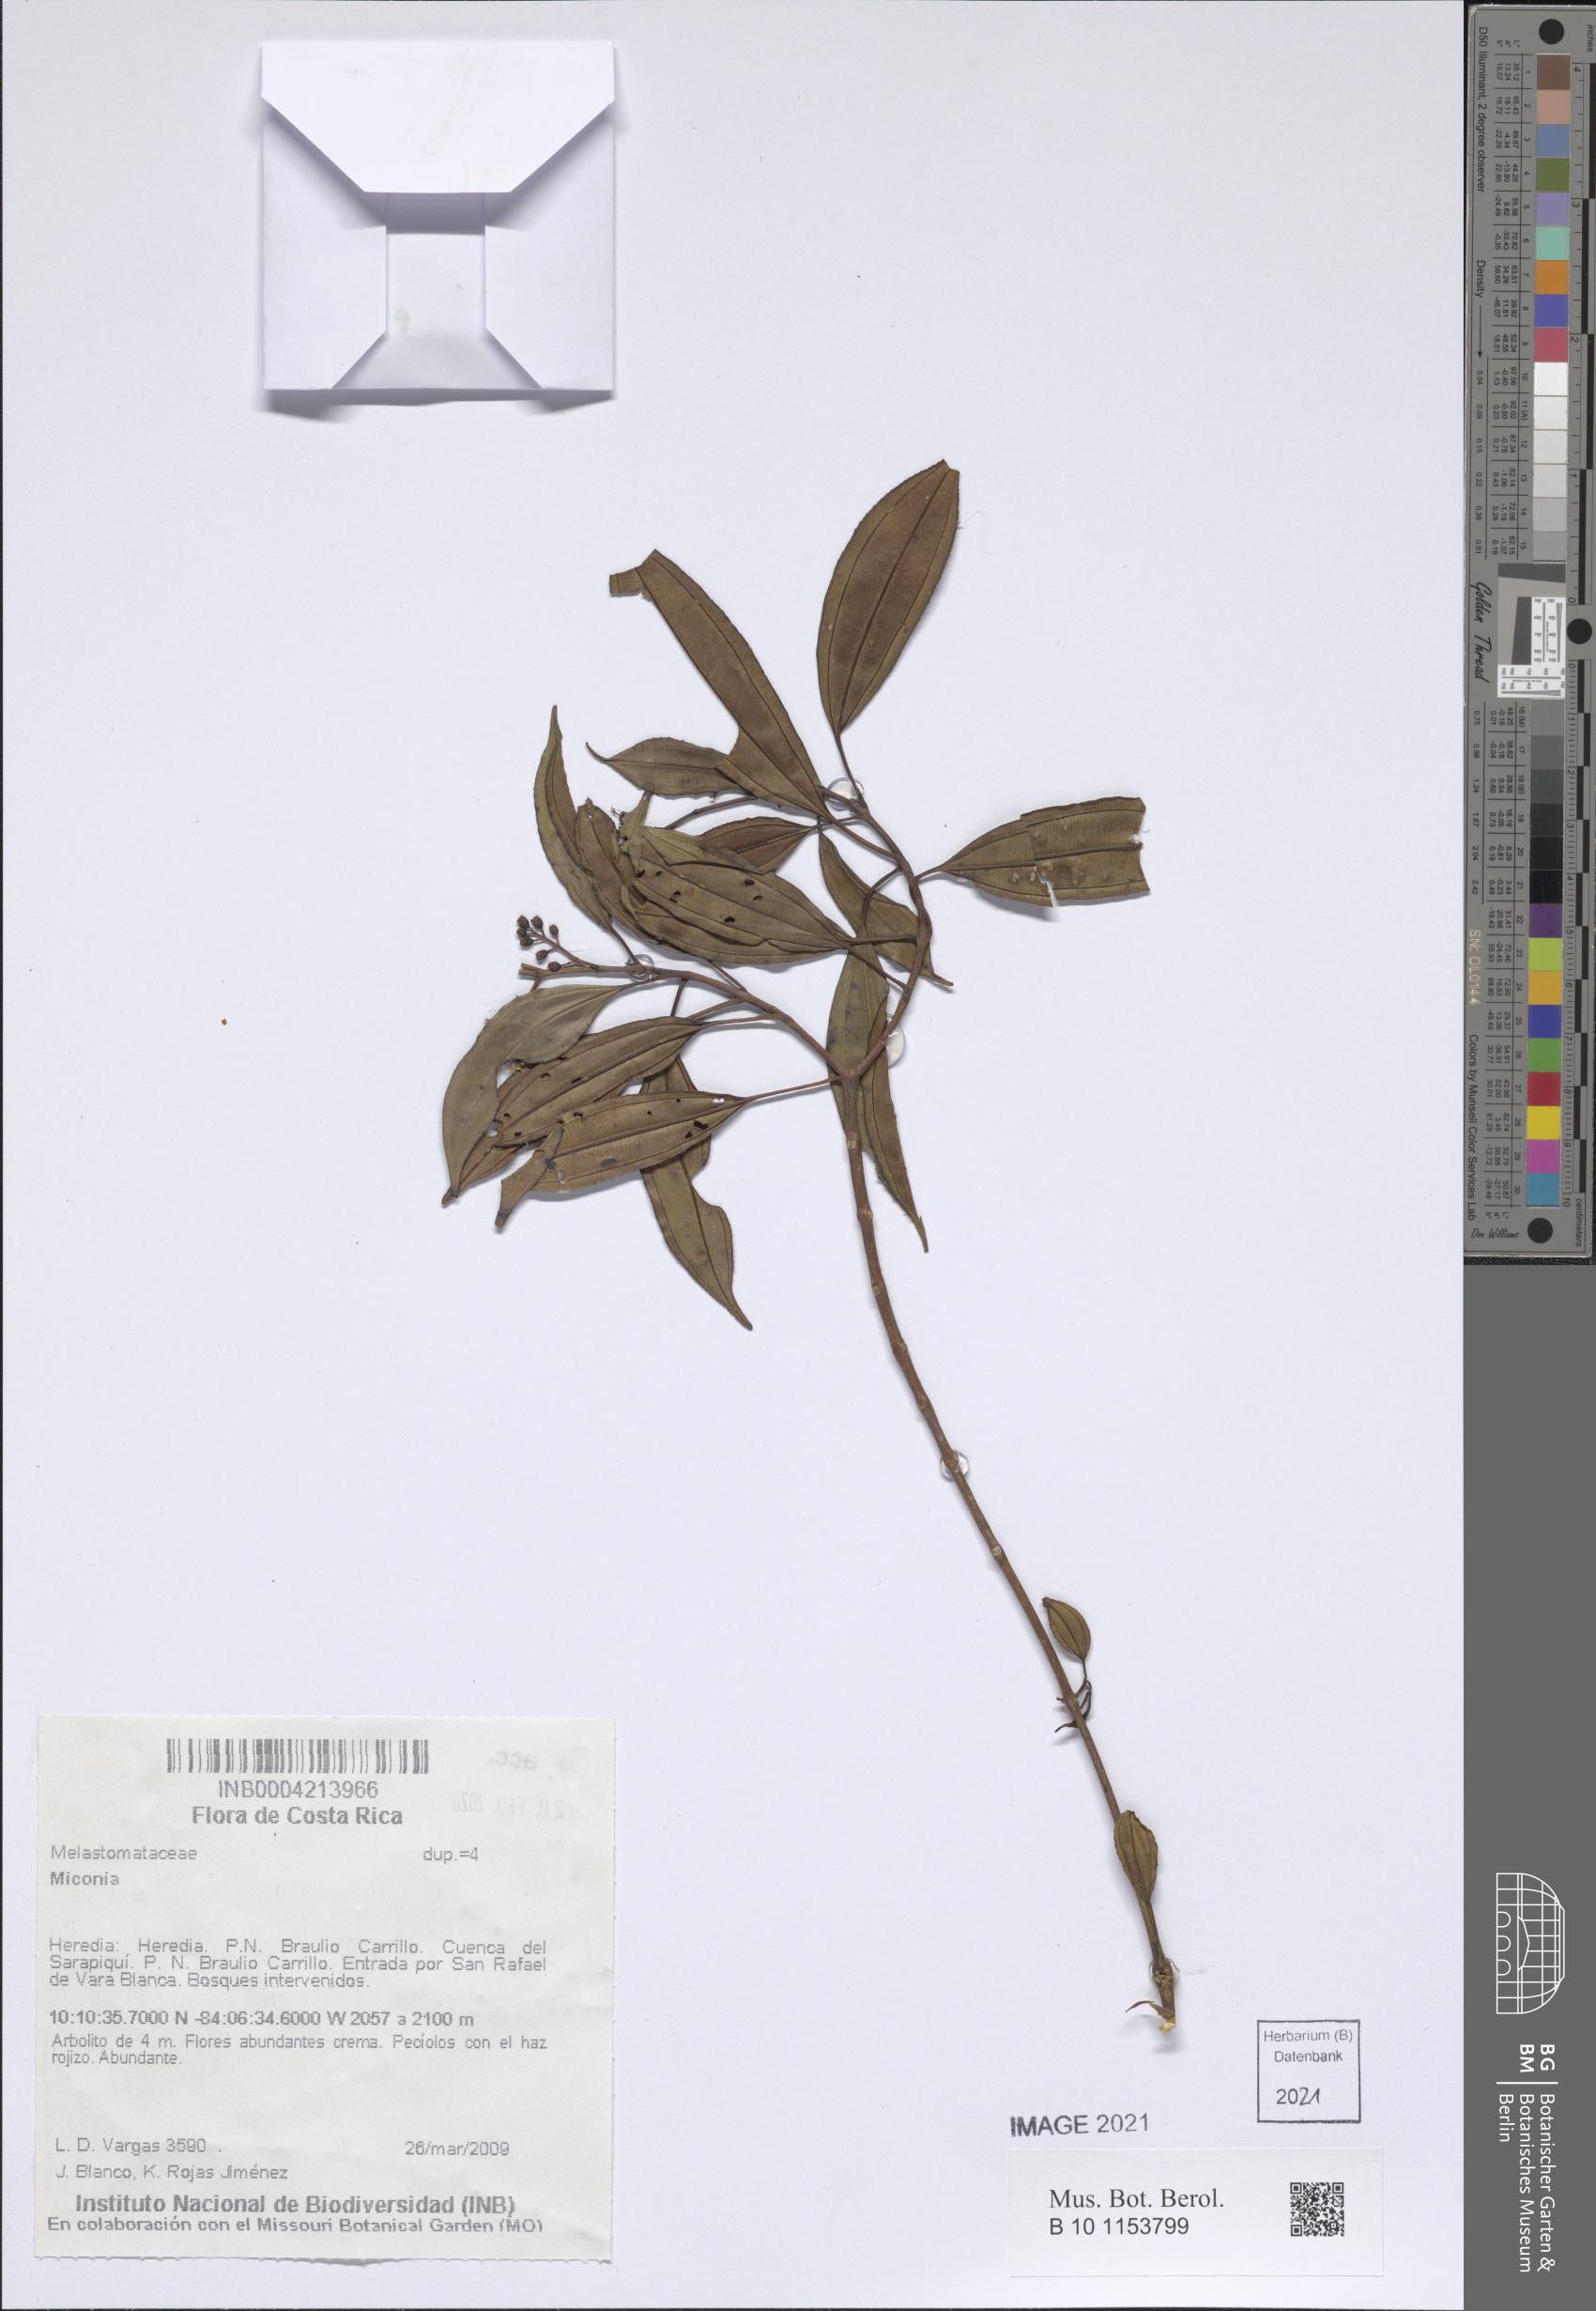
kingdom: Plantae
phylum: Tracheophyta
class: Magnoliopsida
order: Myrtales
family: Melastomataceae
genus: Miconia
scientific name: Miconia
